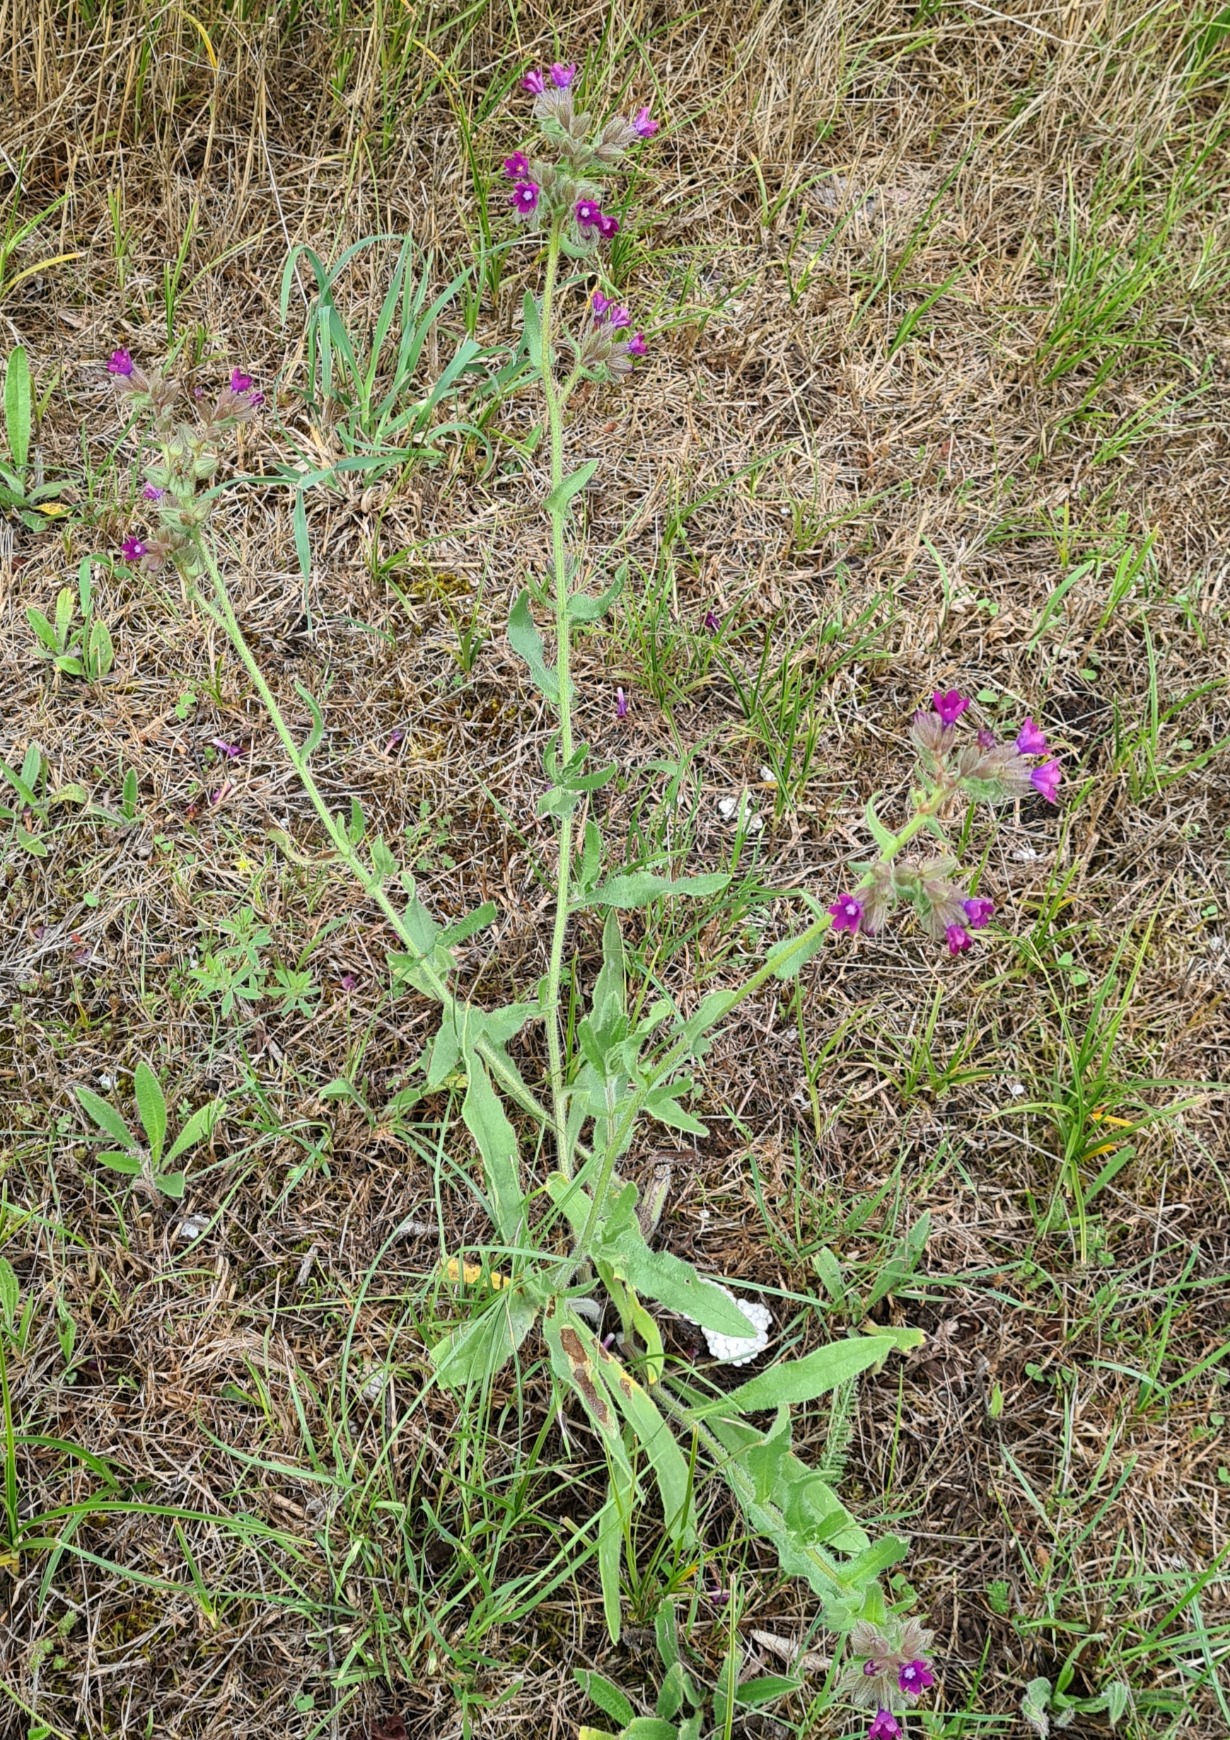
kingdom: Plantae
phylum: Tracheophyta
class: Magnoliopsida
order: Boraginales
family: Boraginaceae
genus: Anchusa
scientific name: Anchusa officinalis
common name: Læge-oksetunge
